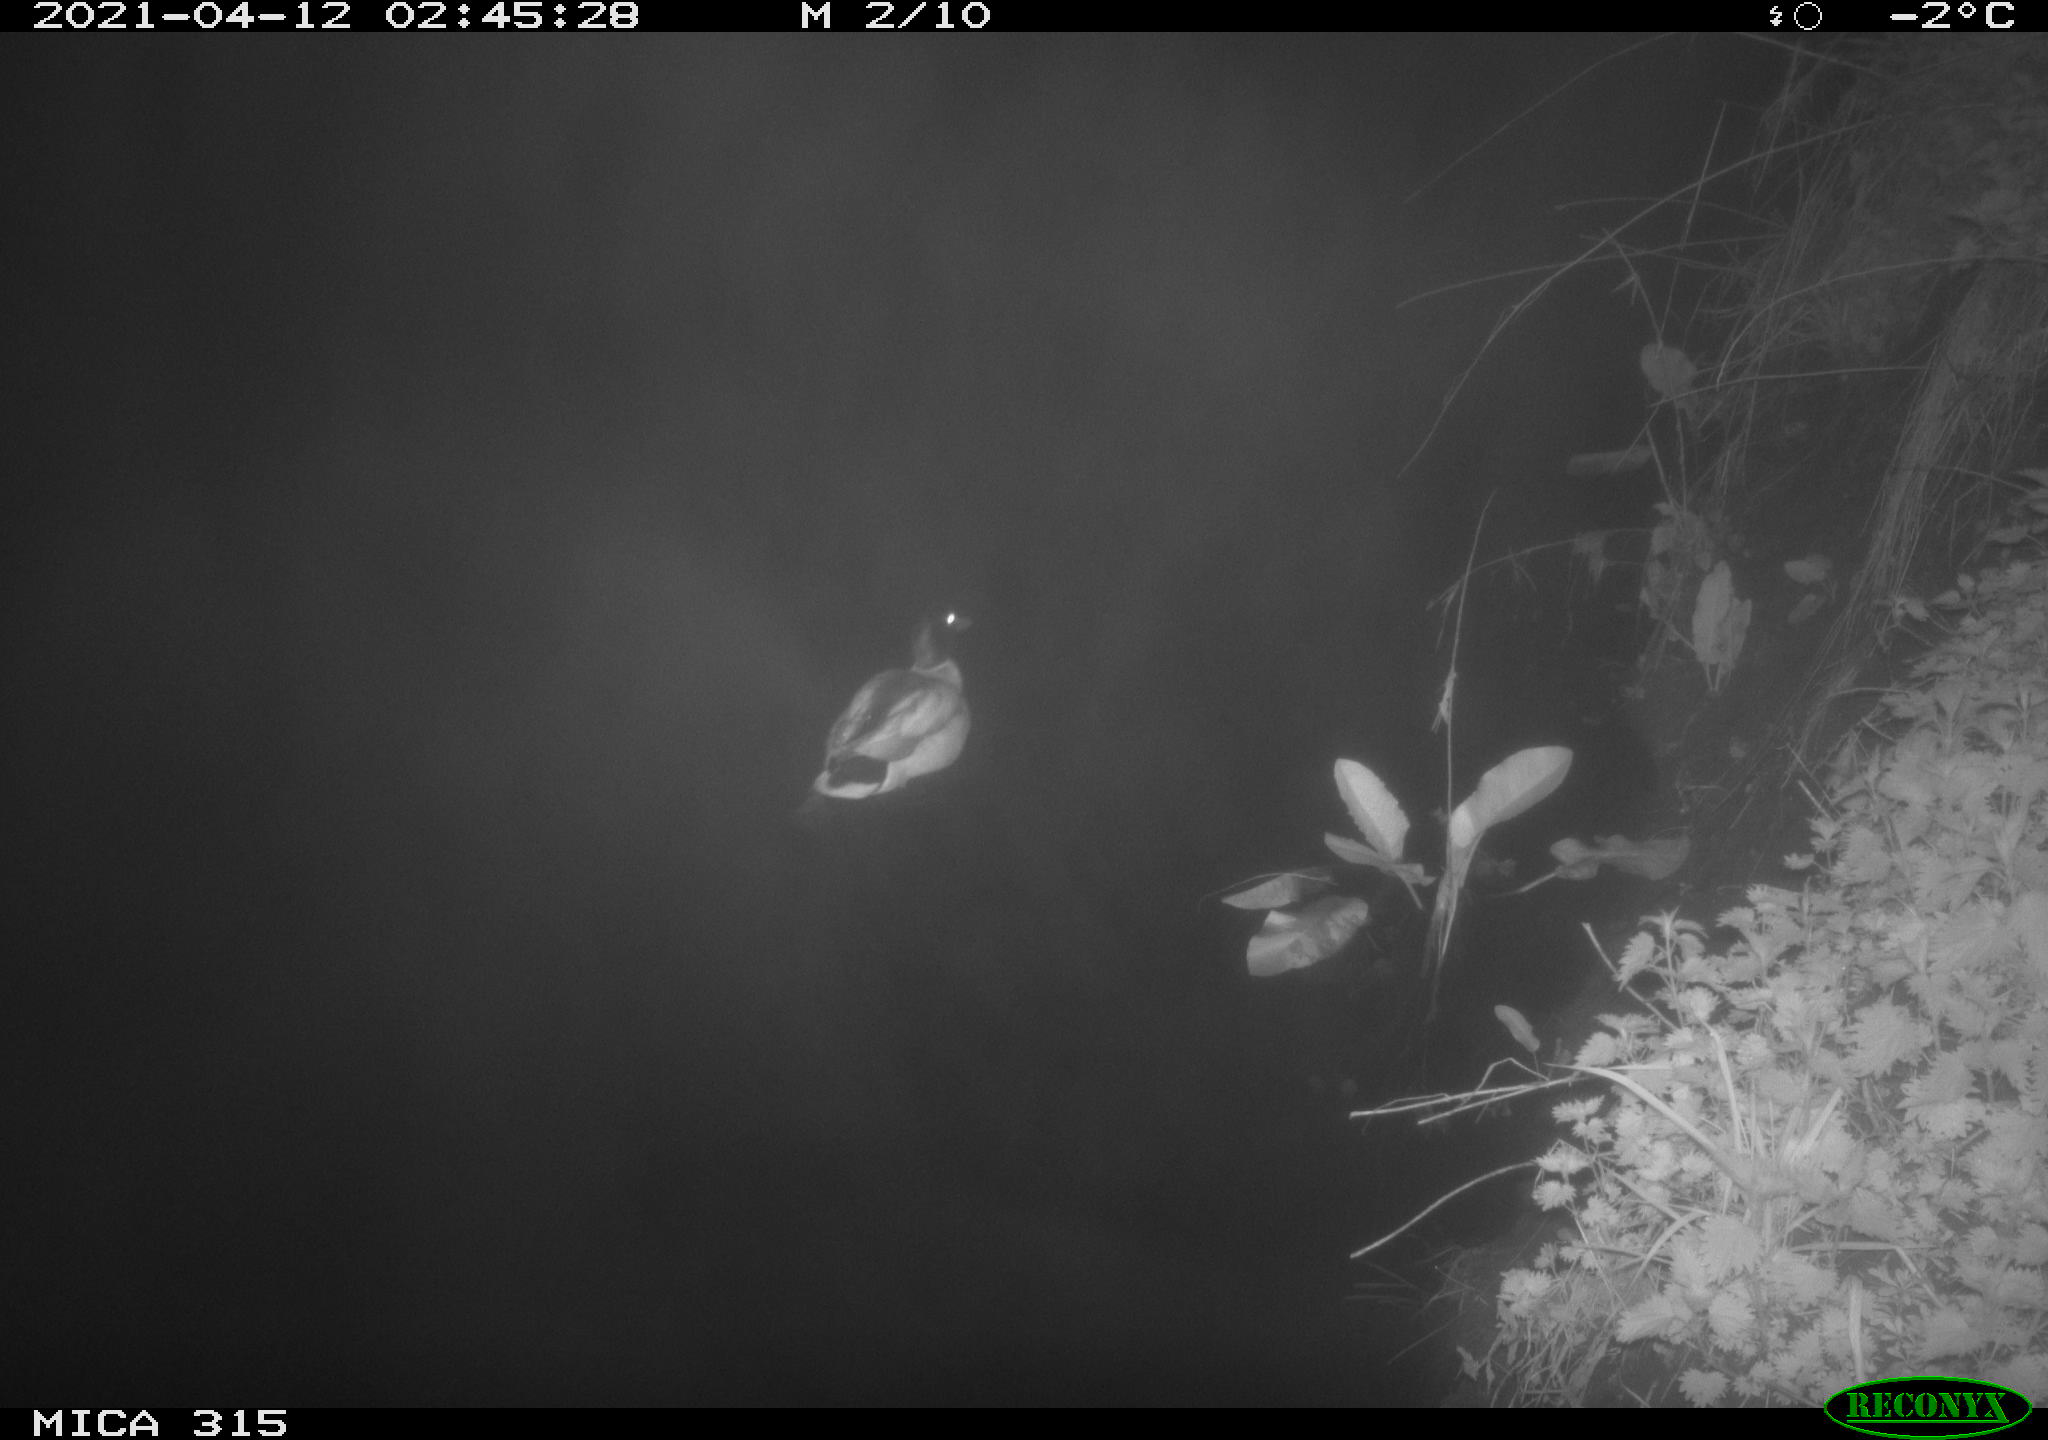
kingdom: Animalia
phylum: Chordata
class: Aves
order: Anseriformes
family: Anatidae
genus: Anas
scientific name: Anas platyrhynchos
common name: Mallard
